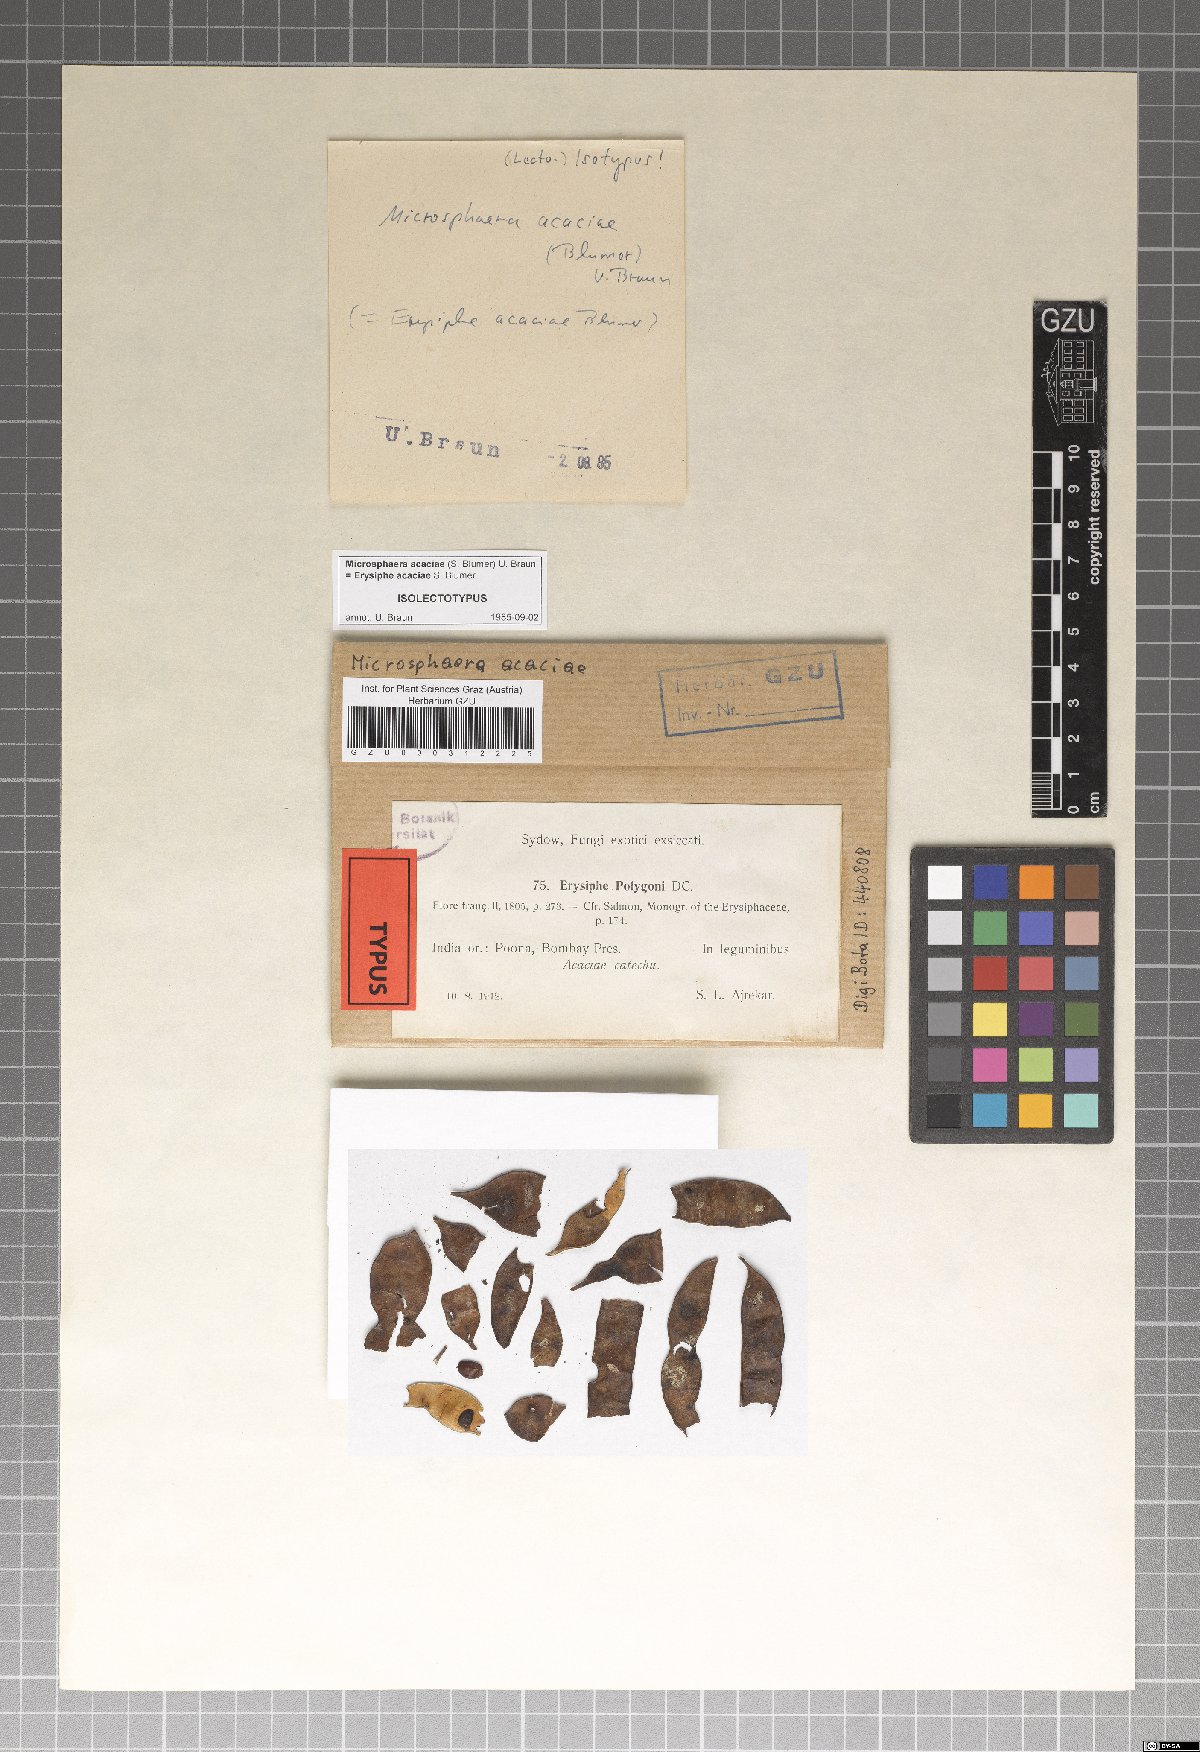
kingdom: Fungi
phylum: Ascomycota
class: Leotiomycetes
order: Helotiales
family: Erysiphaceae
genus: Microsphaera
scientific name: Microsphaera acaciae
